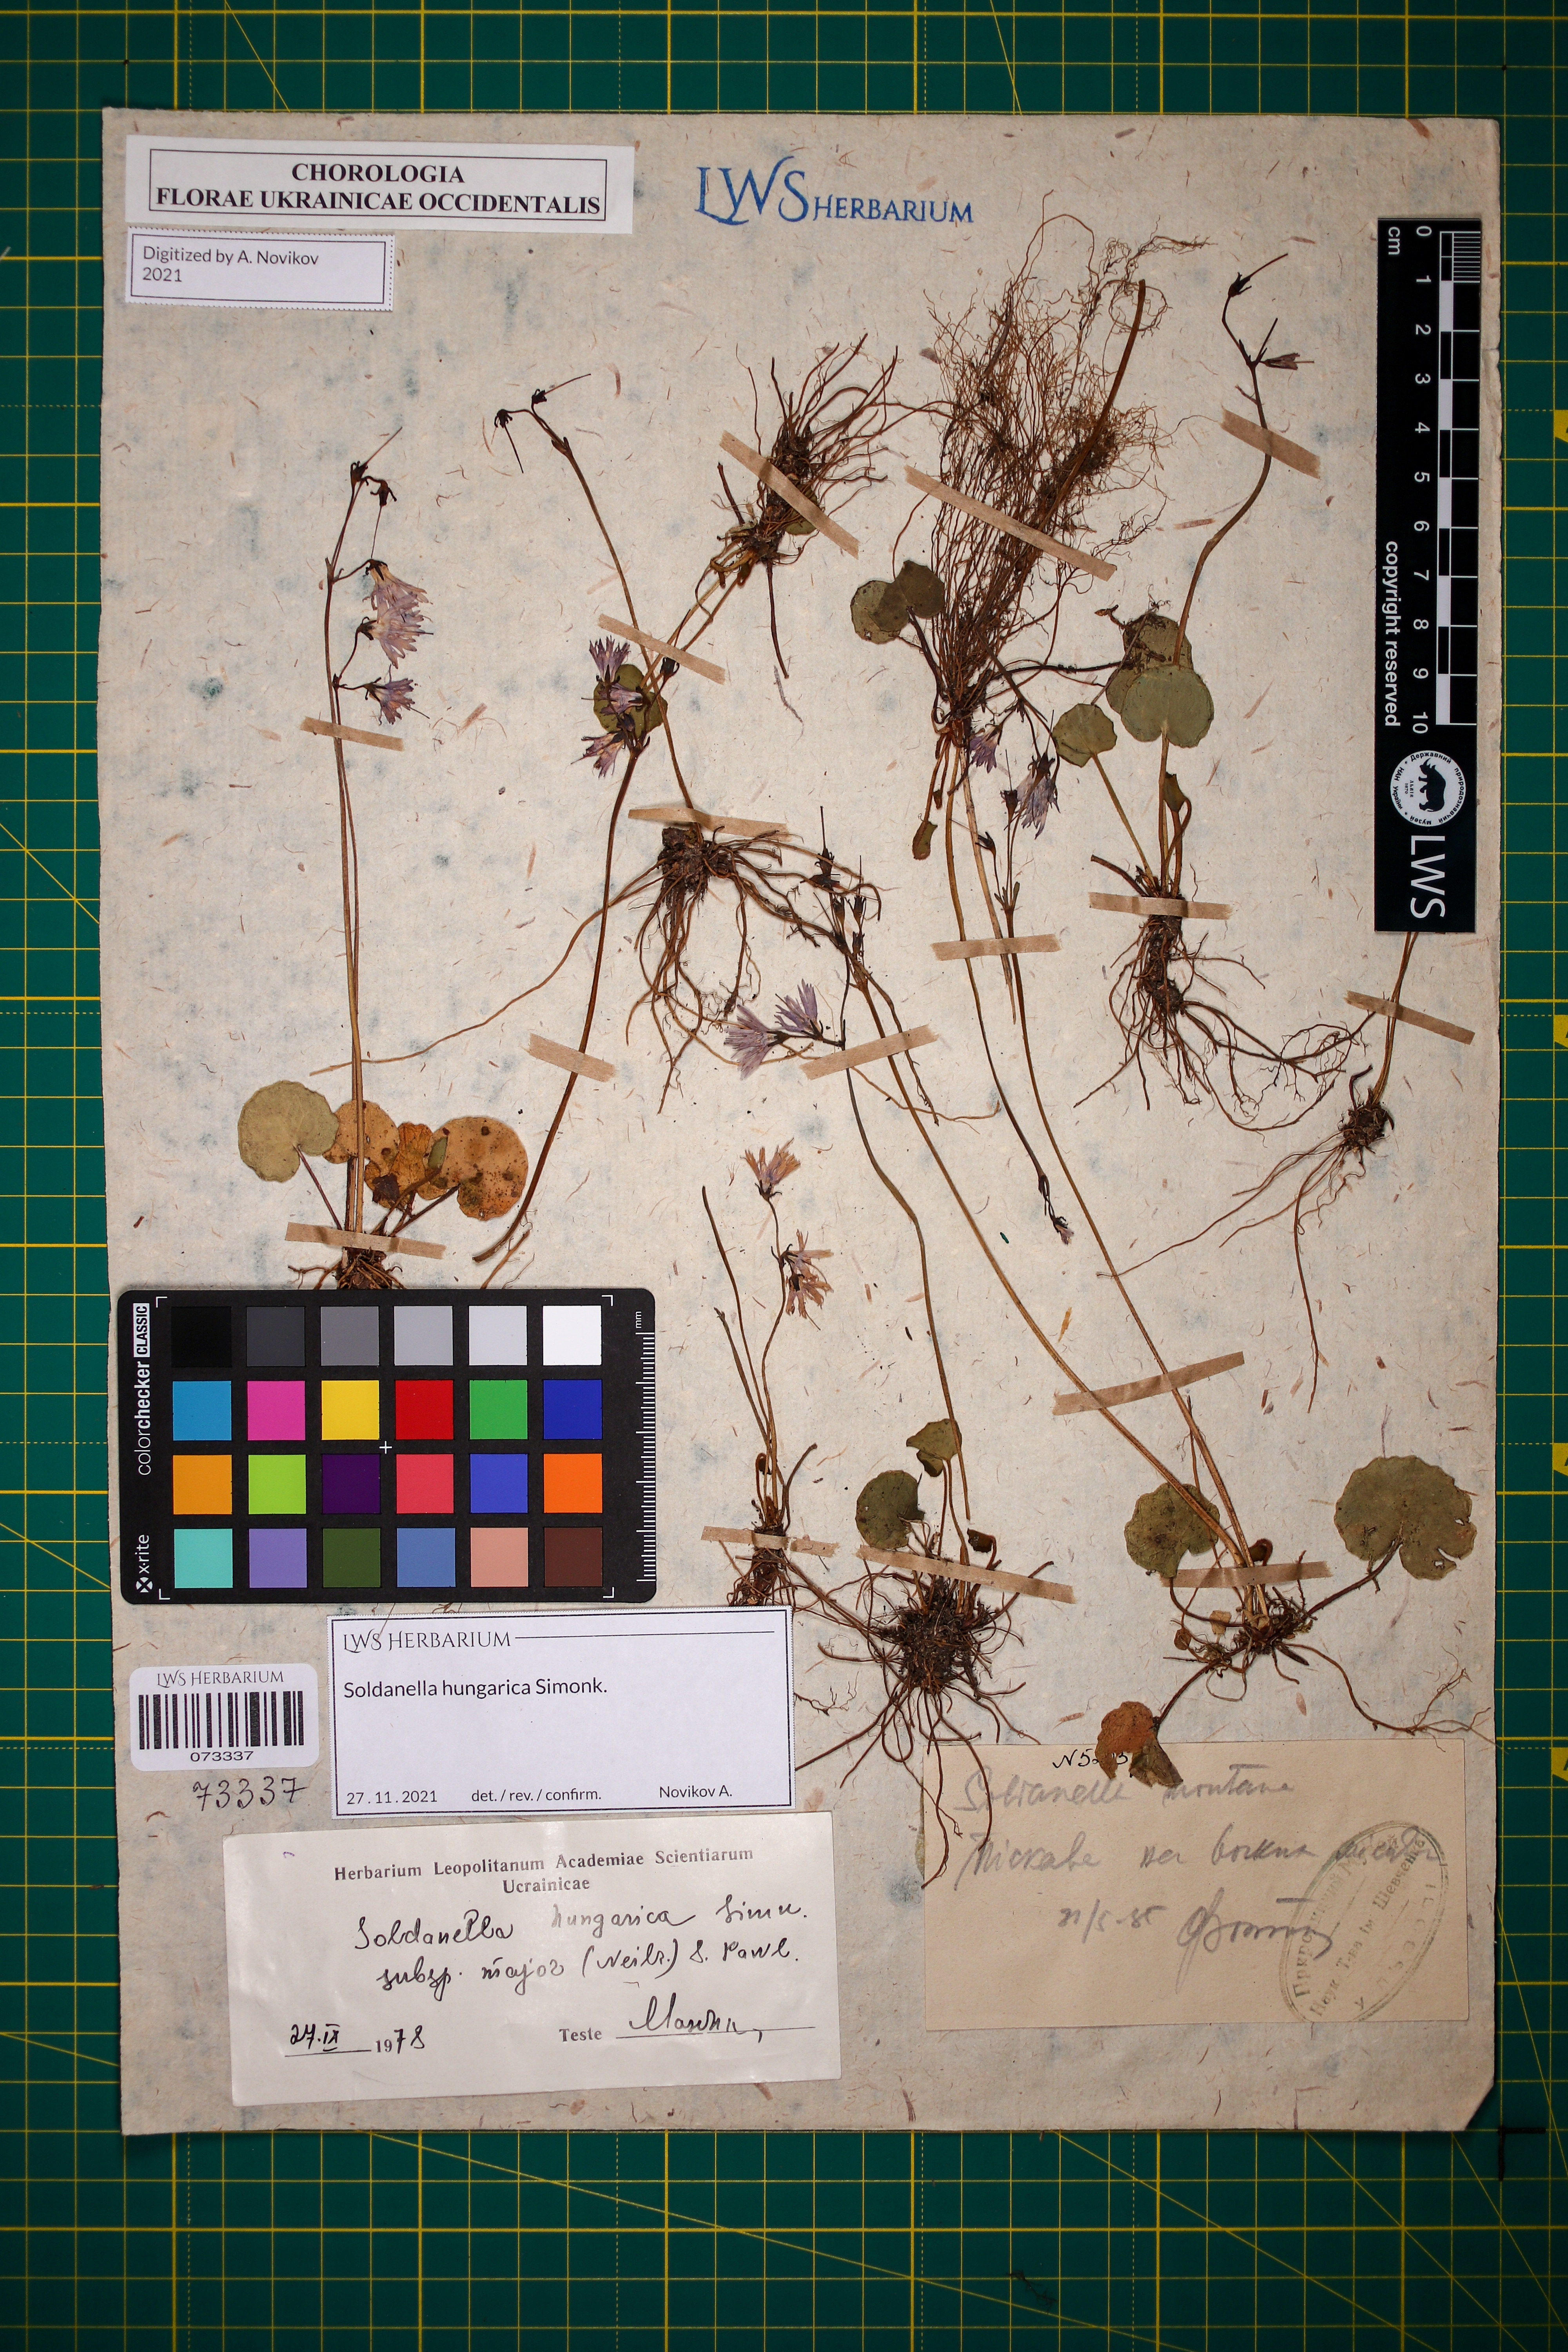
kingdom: Plantae
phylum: Tracheophyta
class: Magnoliopsida
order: Ericales
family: Primulaceae
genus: Soldanella
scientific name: Soldanella hungarica
